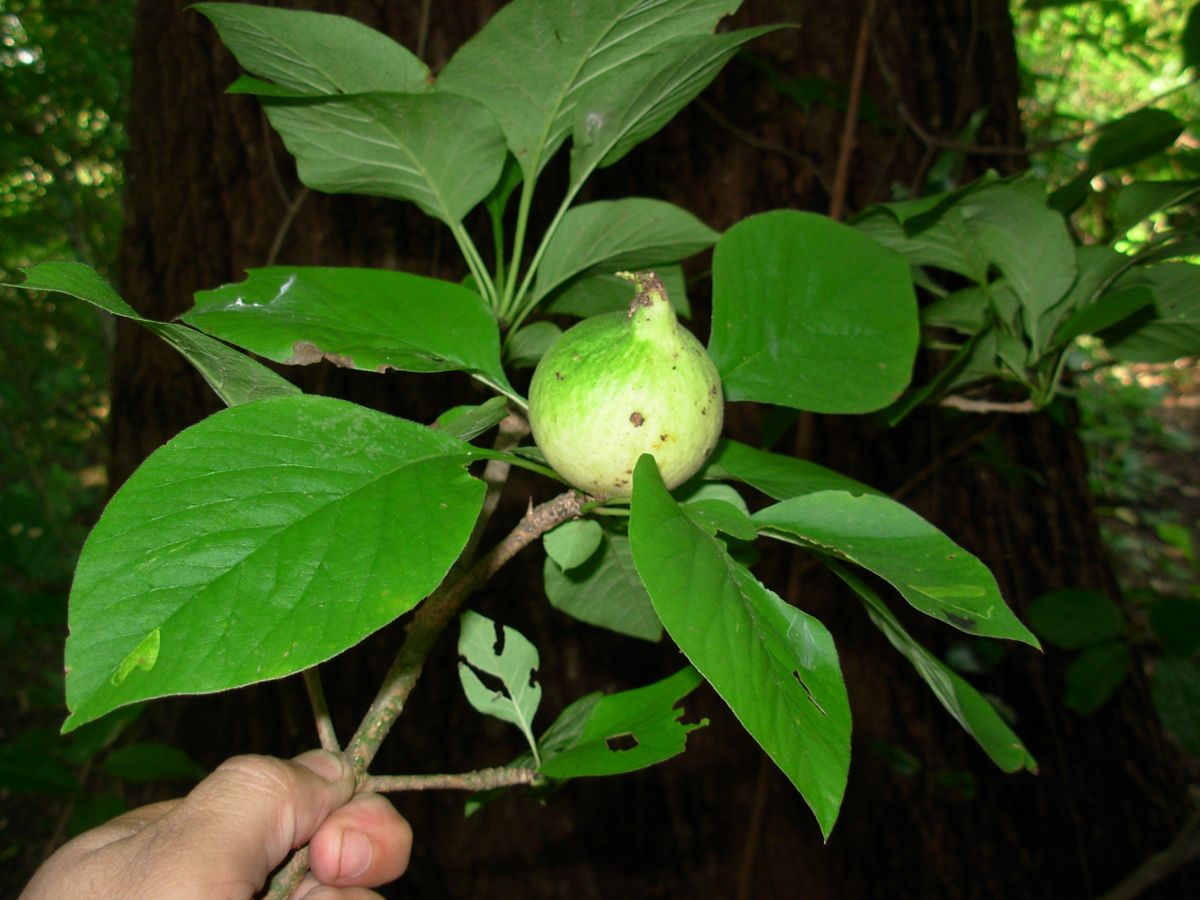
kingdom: Plantae
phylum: Tracheophyta
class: Magnoliopsida
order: Gentianales
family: Rubiaceae
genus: Randia
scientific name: Randia monantha
